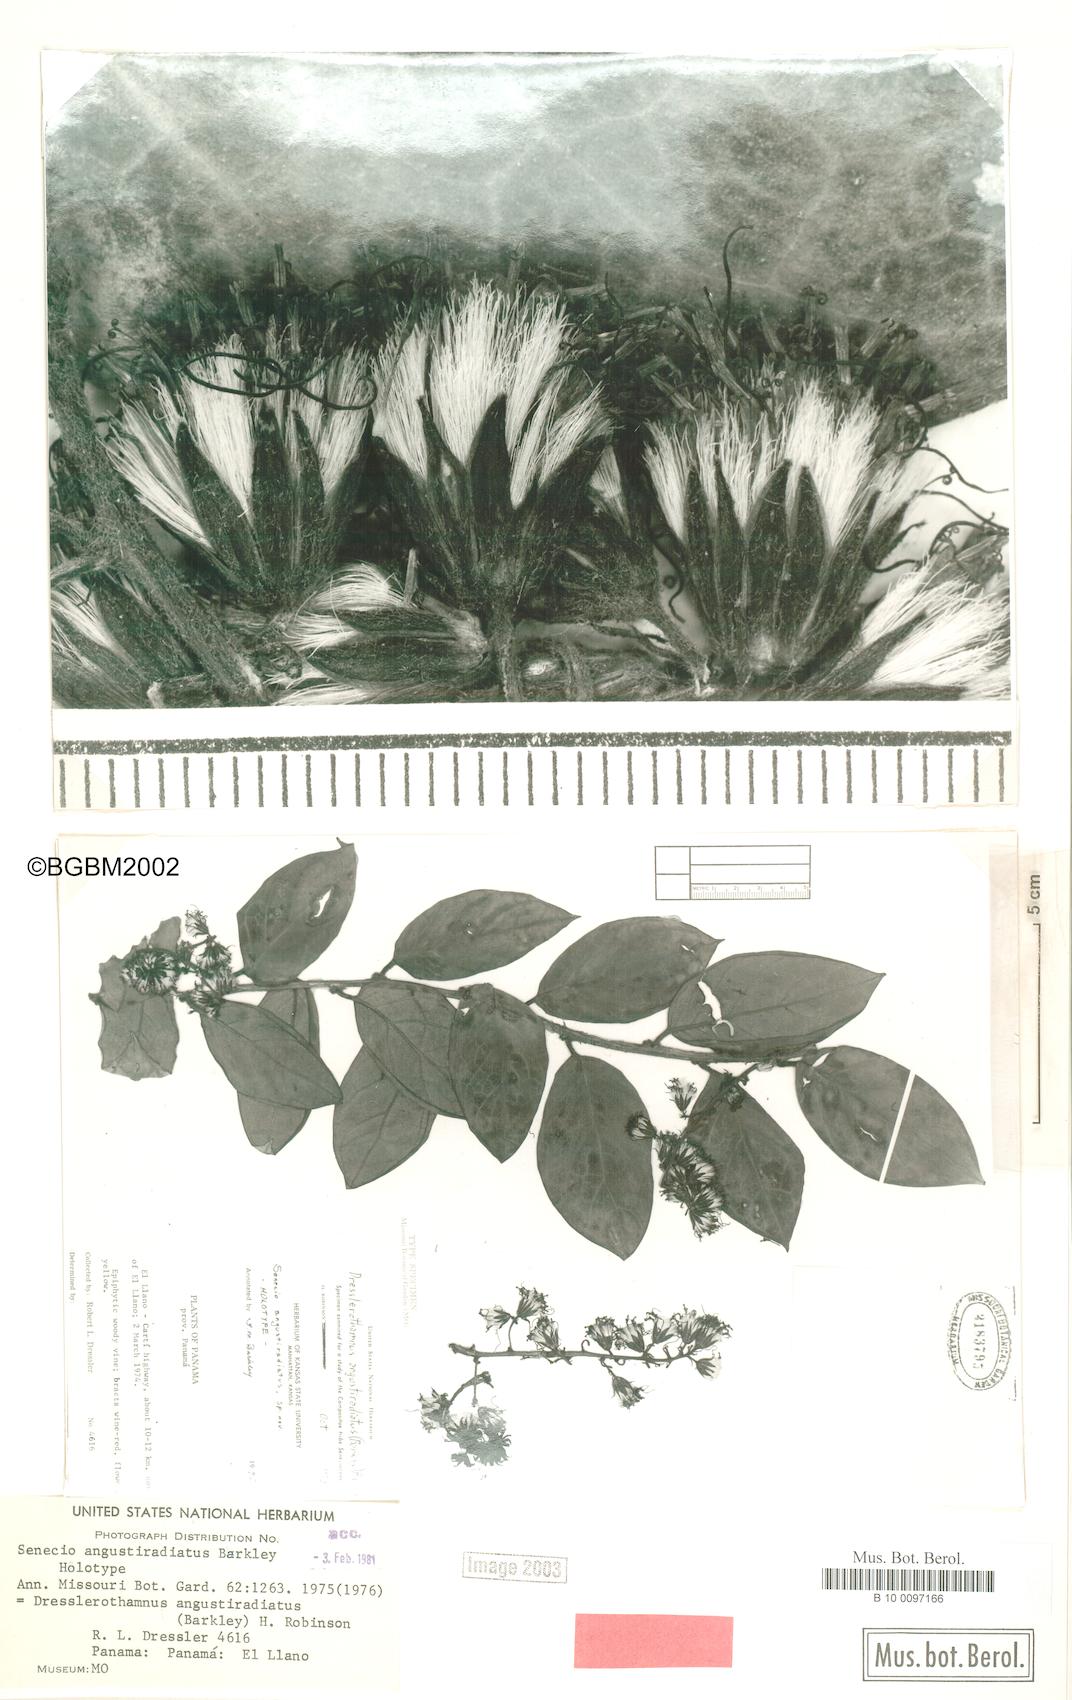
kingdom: Plantae
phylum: Tracheophyta
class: Magnoliopsida
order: Asterales
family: Asteraceae
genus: Senecio
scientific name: Senecio angustiradiatus
